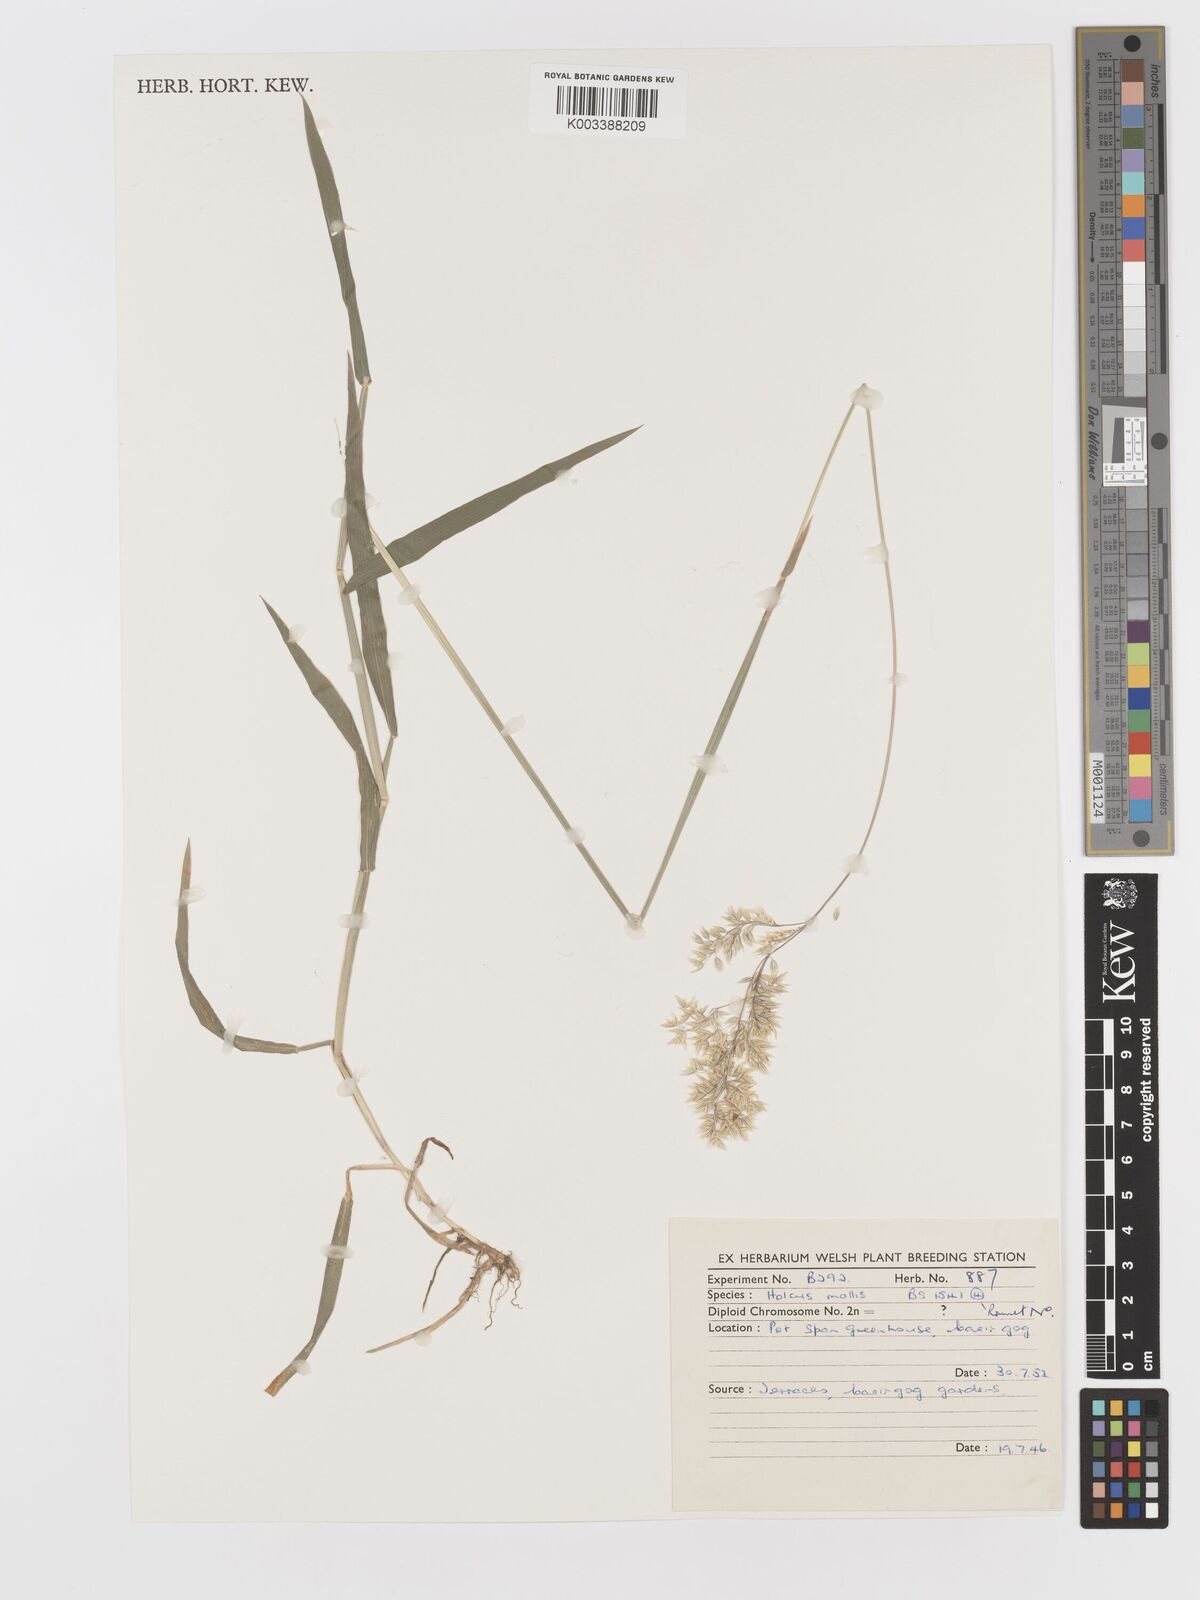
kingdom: Plantae
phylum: Tracheophyta
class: Liliopsida
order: Poales
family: Poaceae
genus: Holcus
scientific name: Holcus mollis
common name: Creeping velvetgrass
